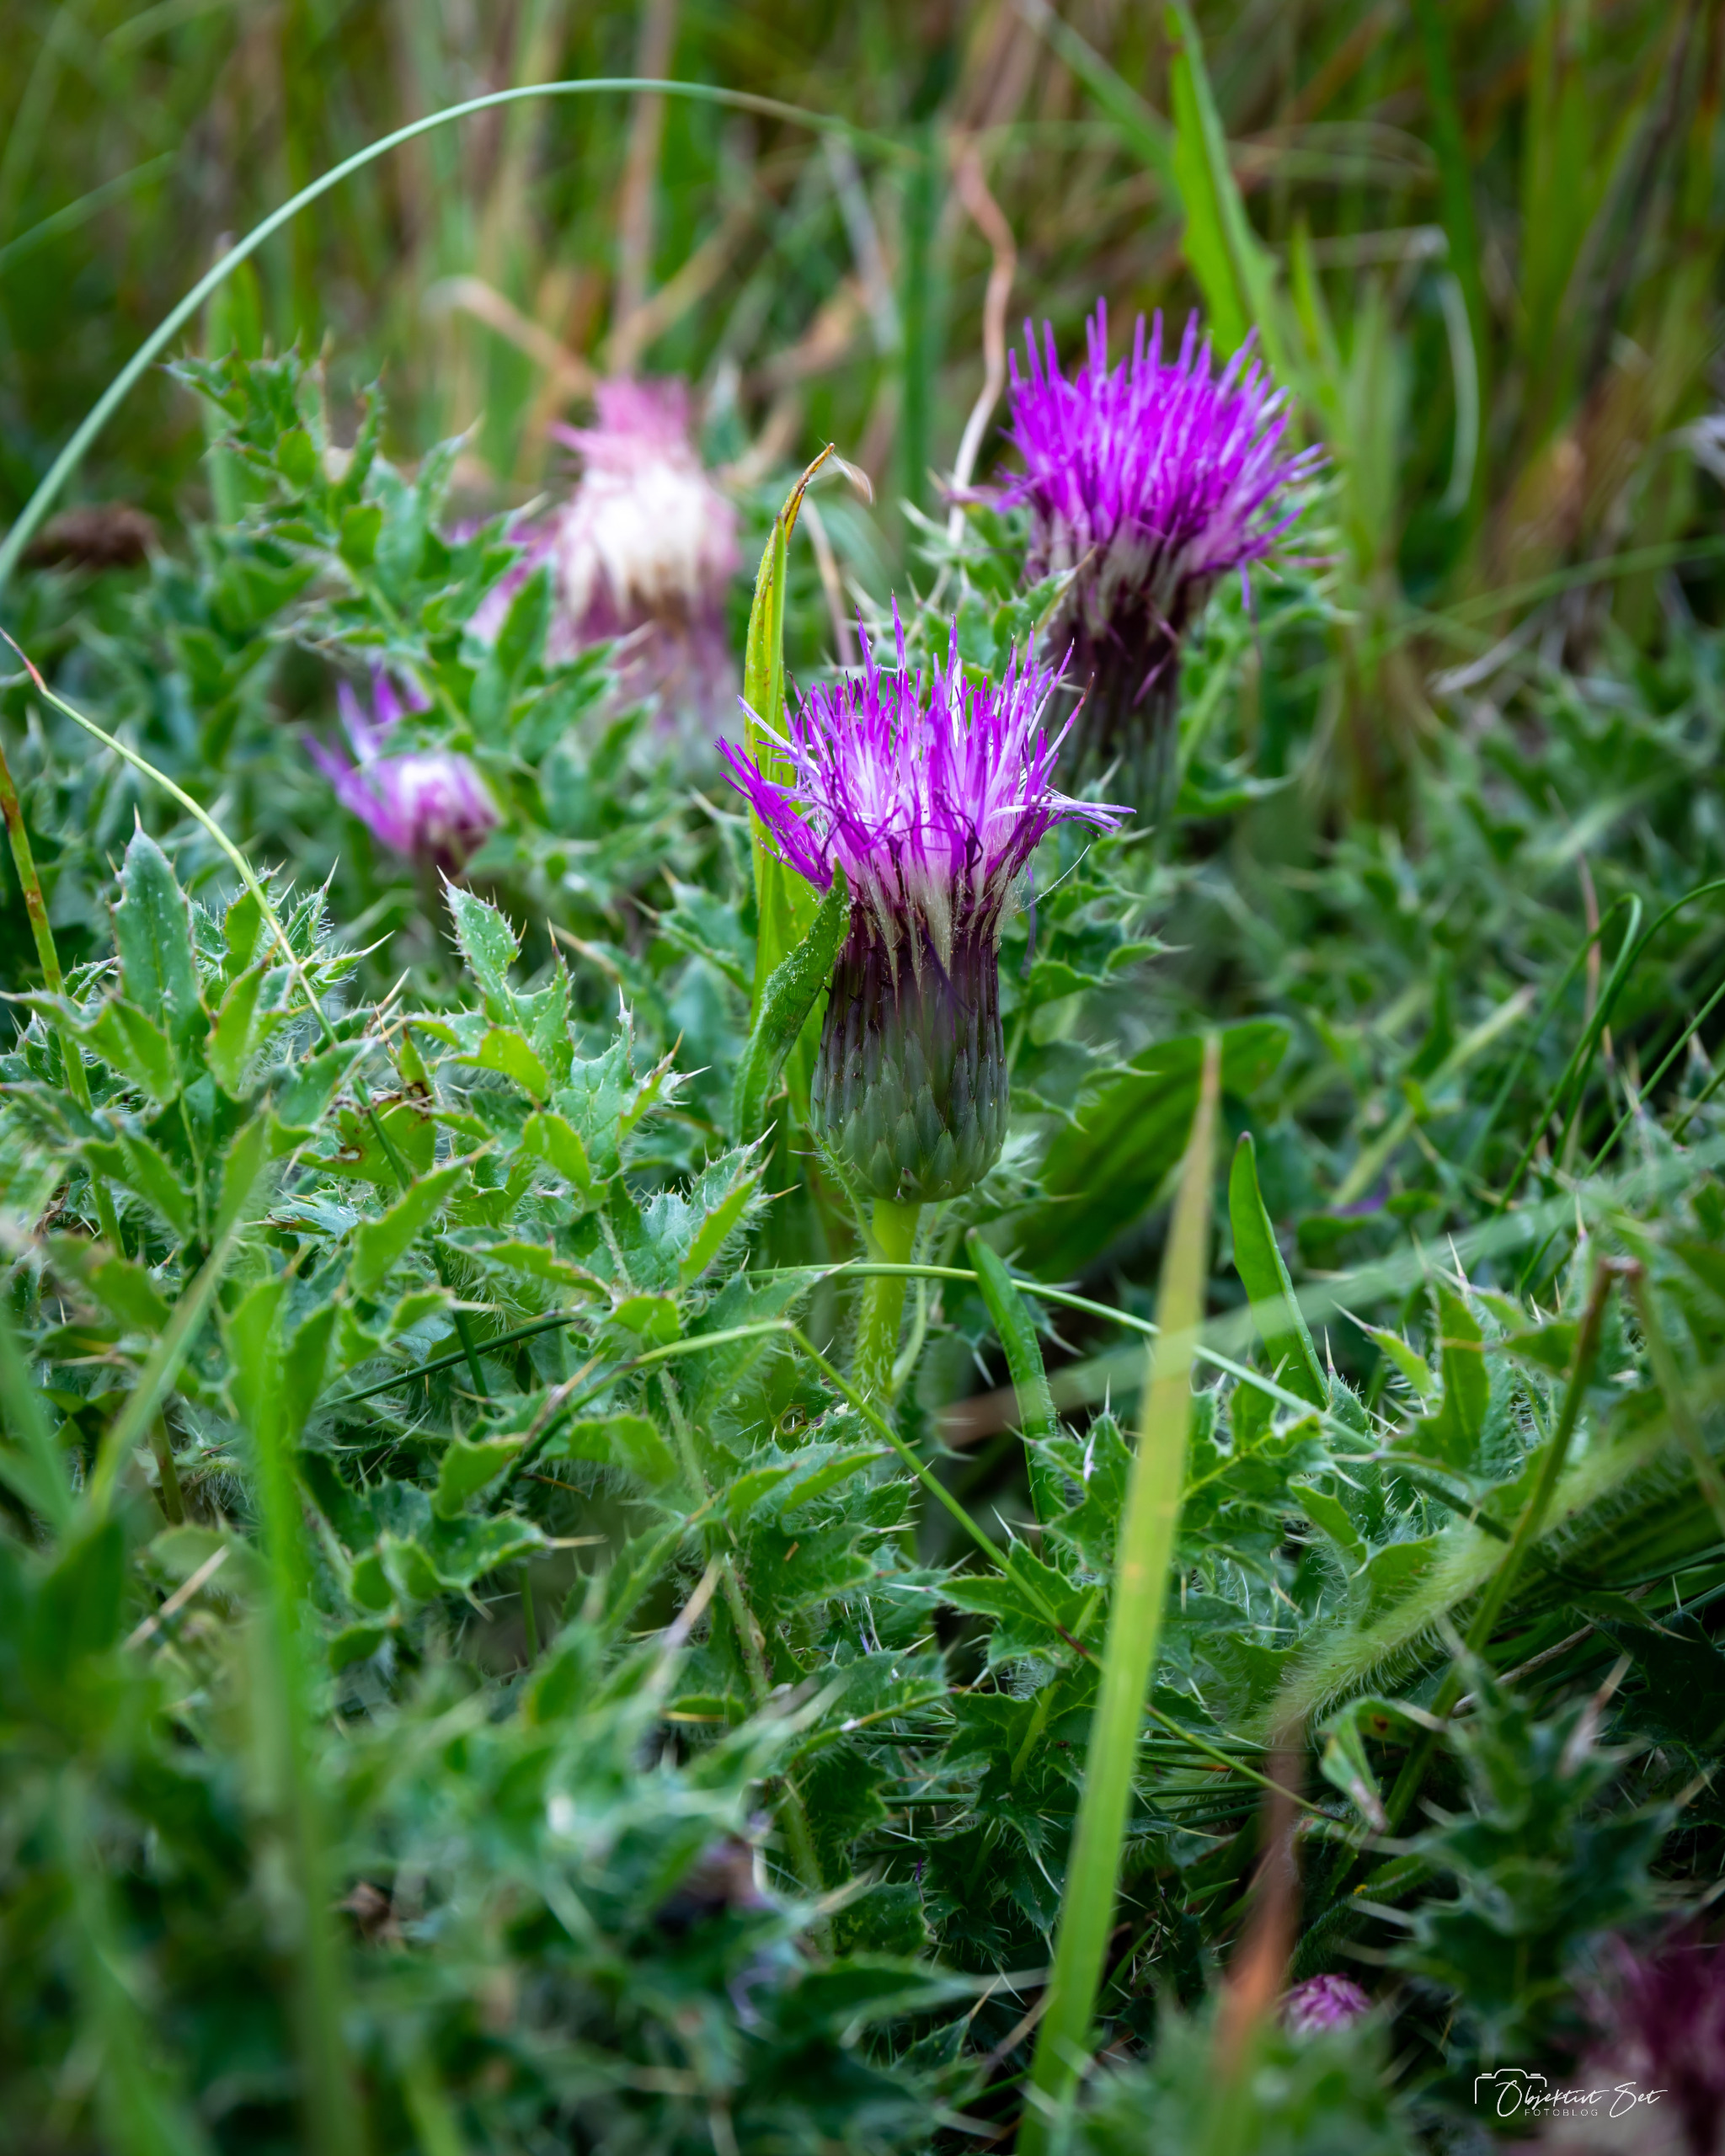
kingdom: Plantae
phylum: Tracheophyta
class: Magnoliopsida
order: Asterales
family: Asteraceae
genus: Cirsium
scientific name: Cirsium acaule
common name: Lav tidsel
